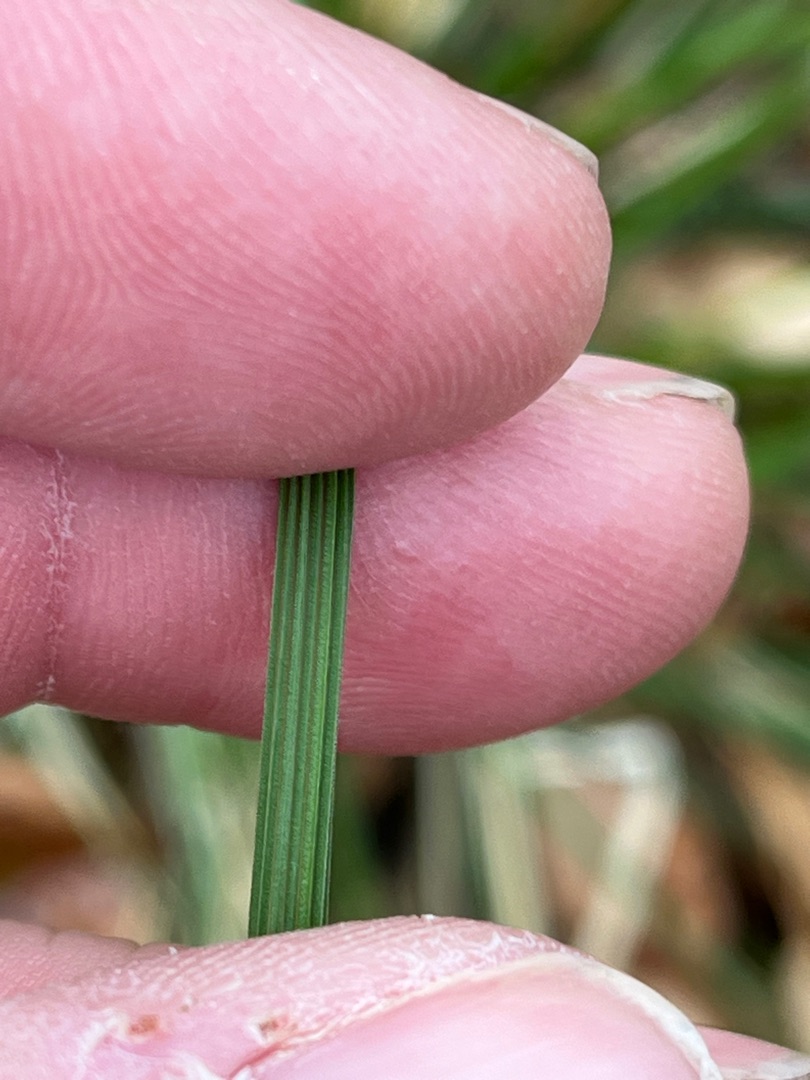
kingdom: Plantae
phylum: Tracheophyta
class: Liliopsida
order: Poales
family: Poaceae
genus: Deschampsia
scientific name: Deschampsia cespitosa
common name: Mose-bunke
